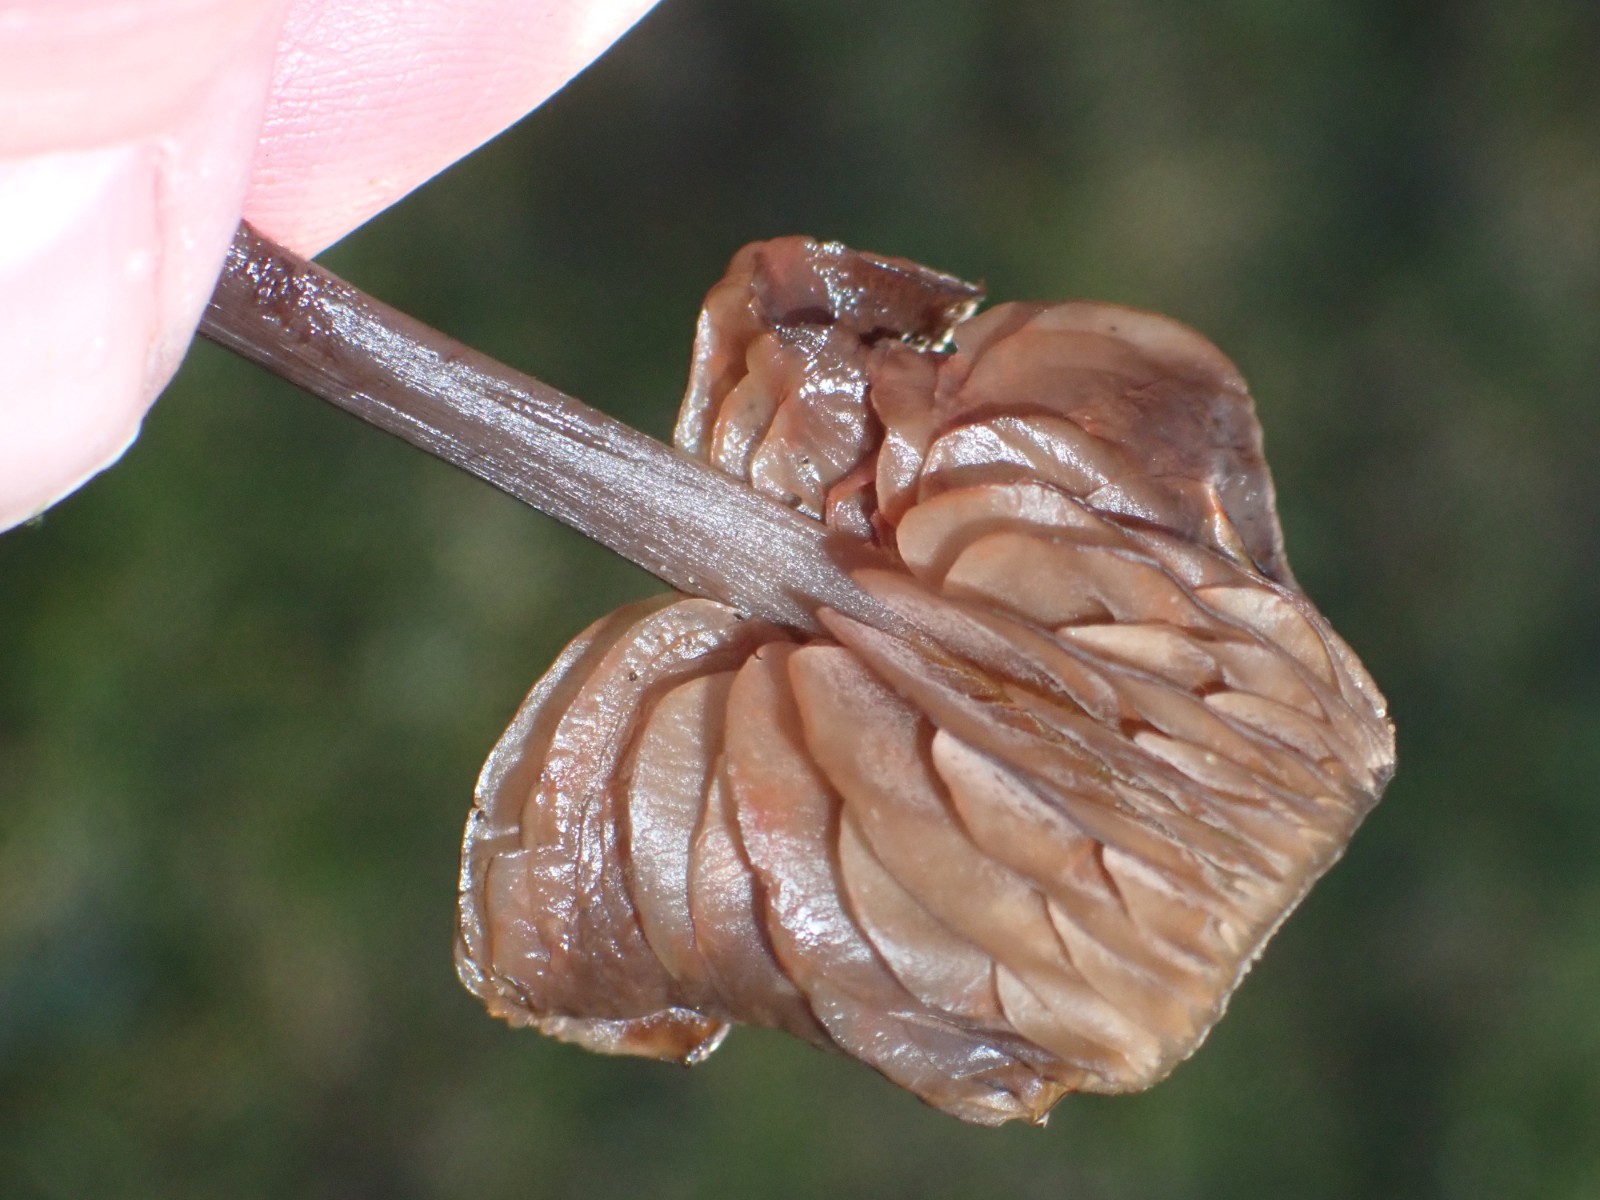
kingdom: Fungi
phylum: Basidiomycota
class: Agaricomycetes
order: Agaricales
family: Entolomataceae
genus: Entoloma
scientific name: Entoloma
